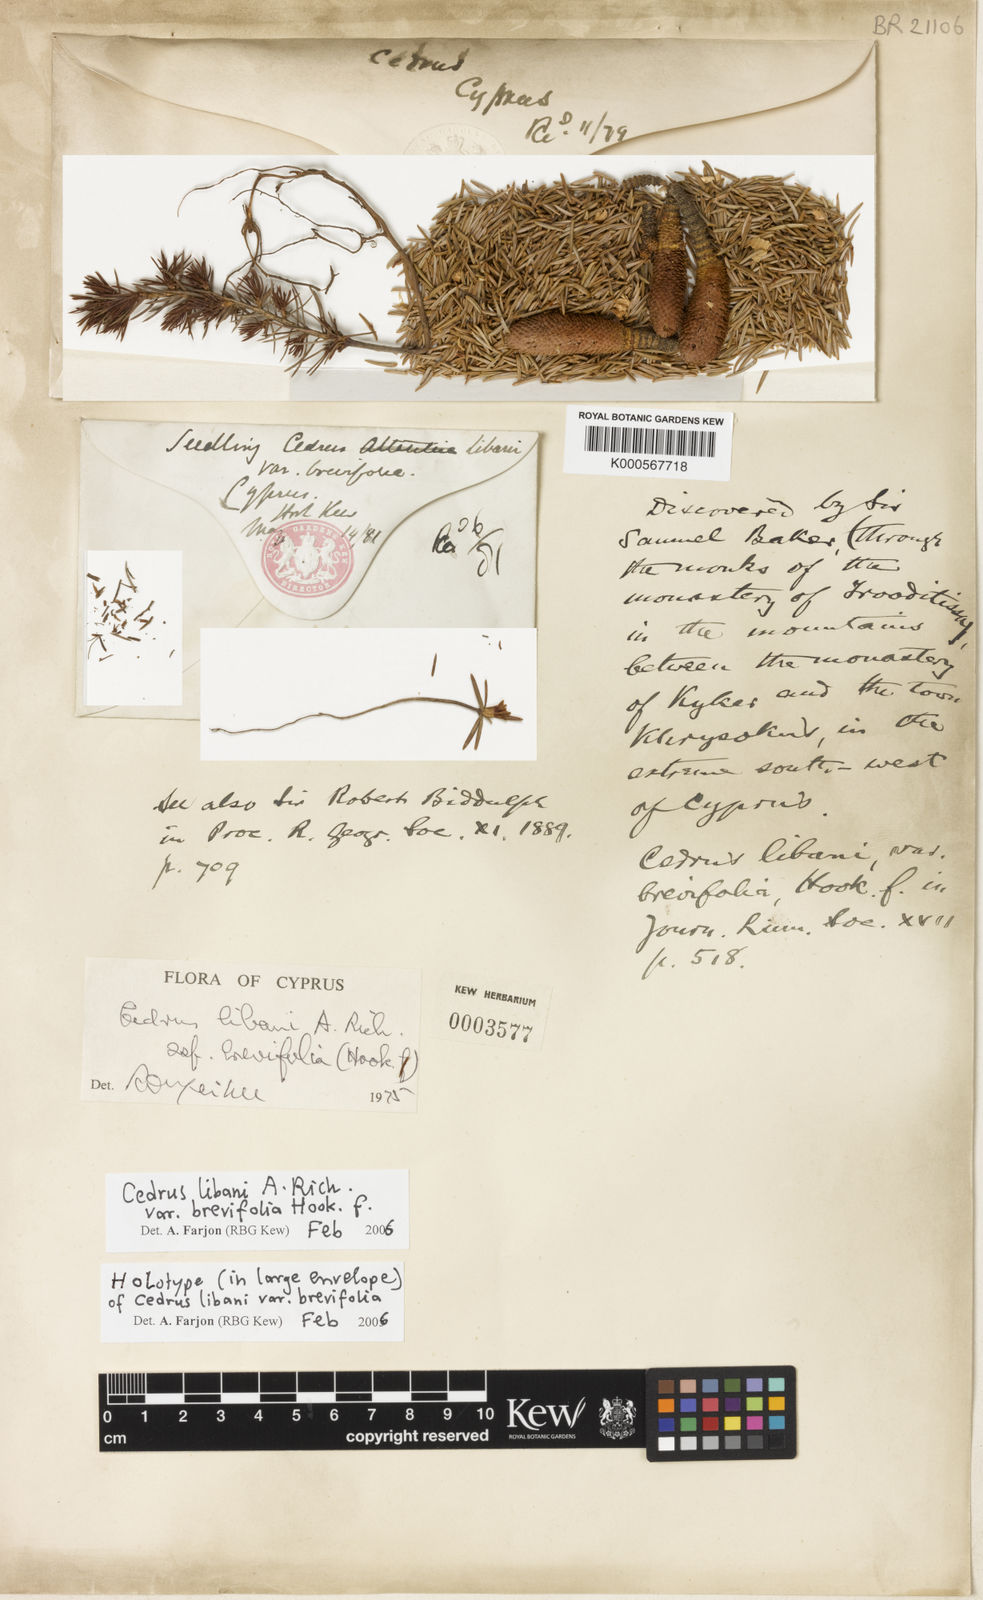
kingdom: Plantae
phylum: Tracheophyta
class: Pinopsida
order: Pinales
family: Pinaceae
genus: Cedrus
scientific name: Cedrus libani
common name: Cedar-of-lebanon
